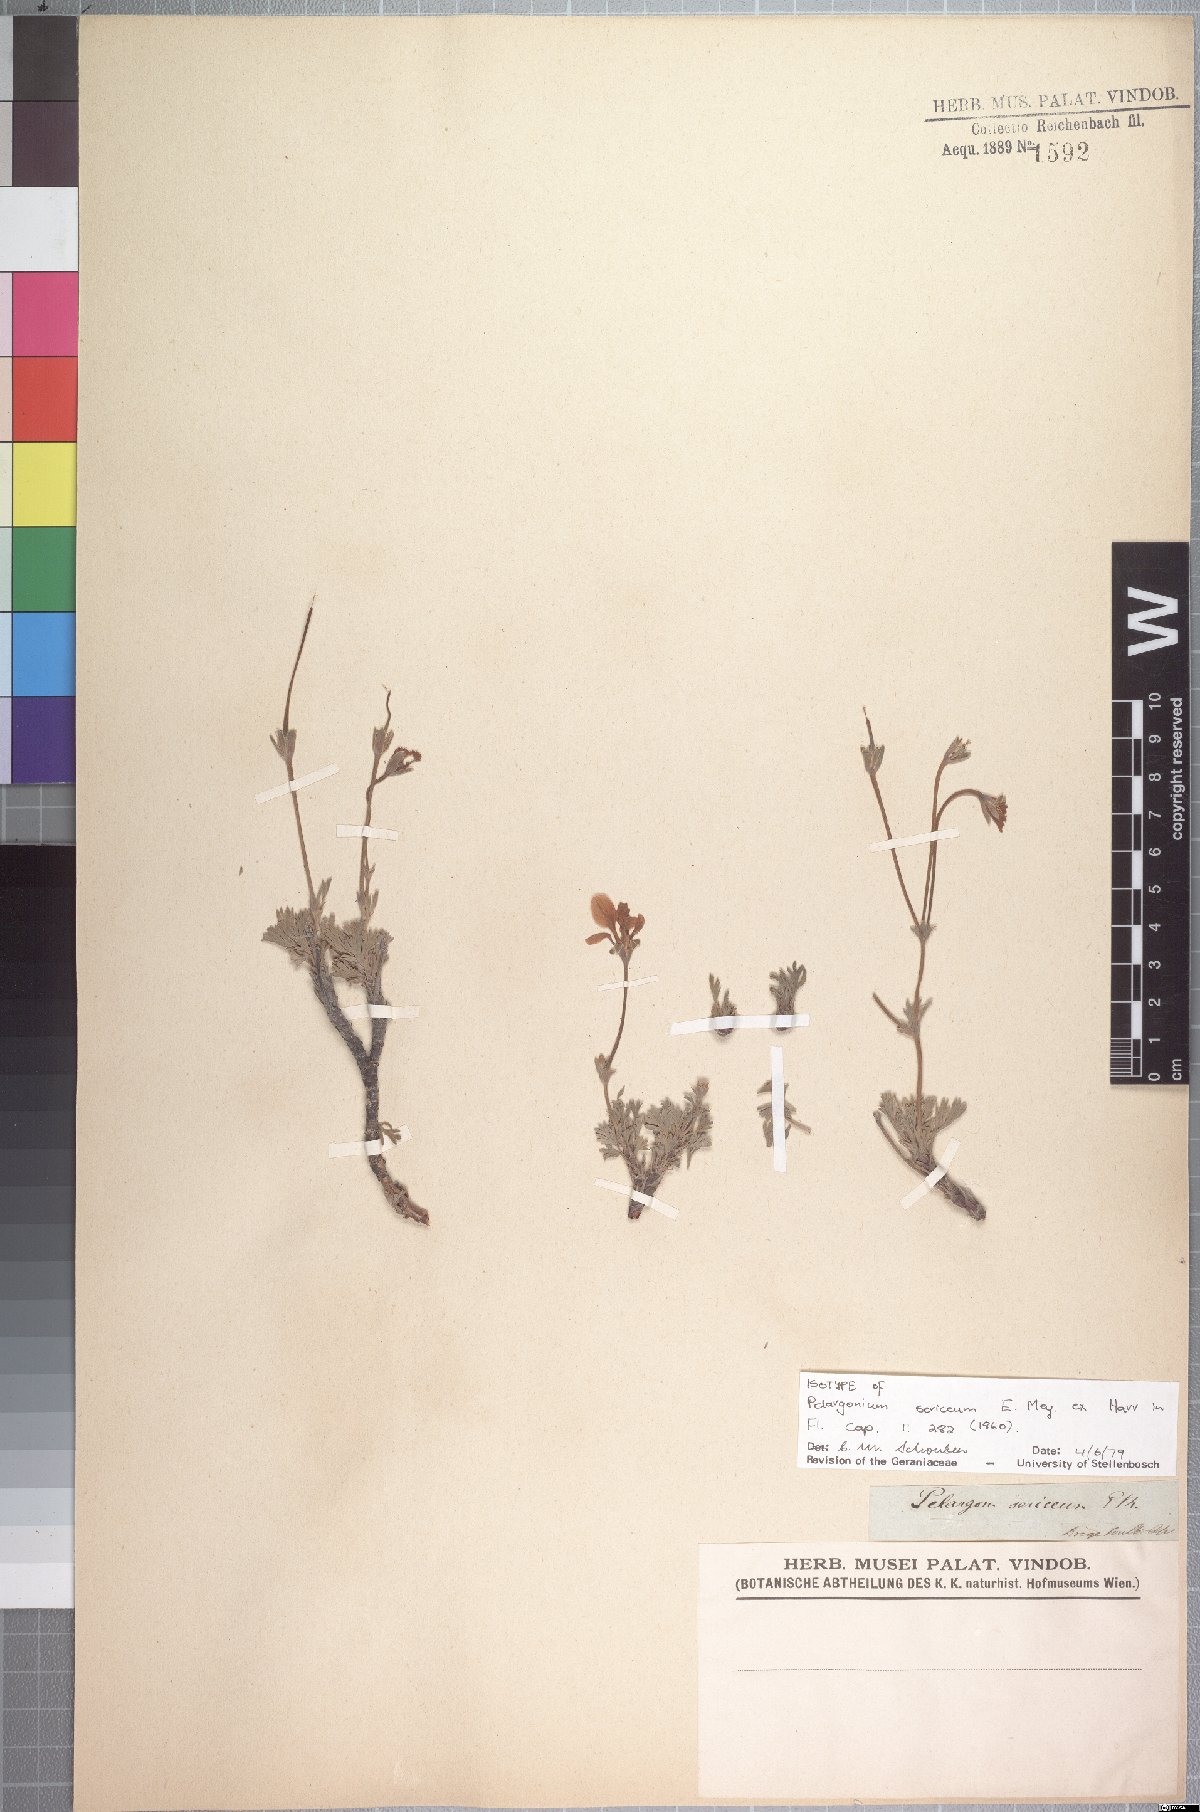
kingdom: Plantae
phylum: Tracheophyta
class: Magnoliopsida
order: Geraniales
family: Geraniaceae
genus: Pelargonium
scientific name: Pelargonium sericifolium
